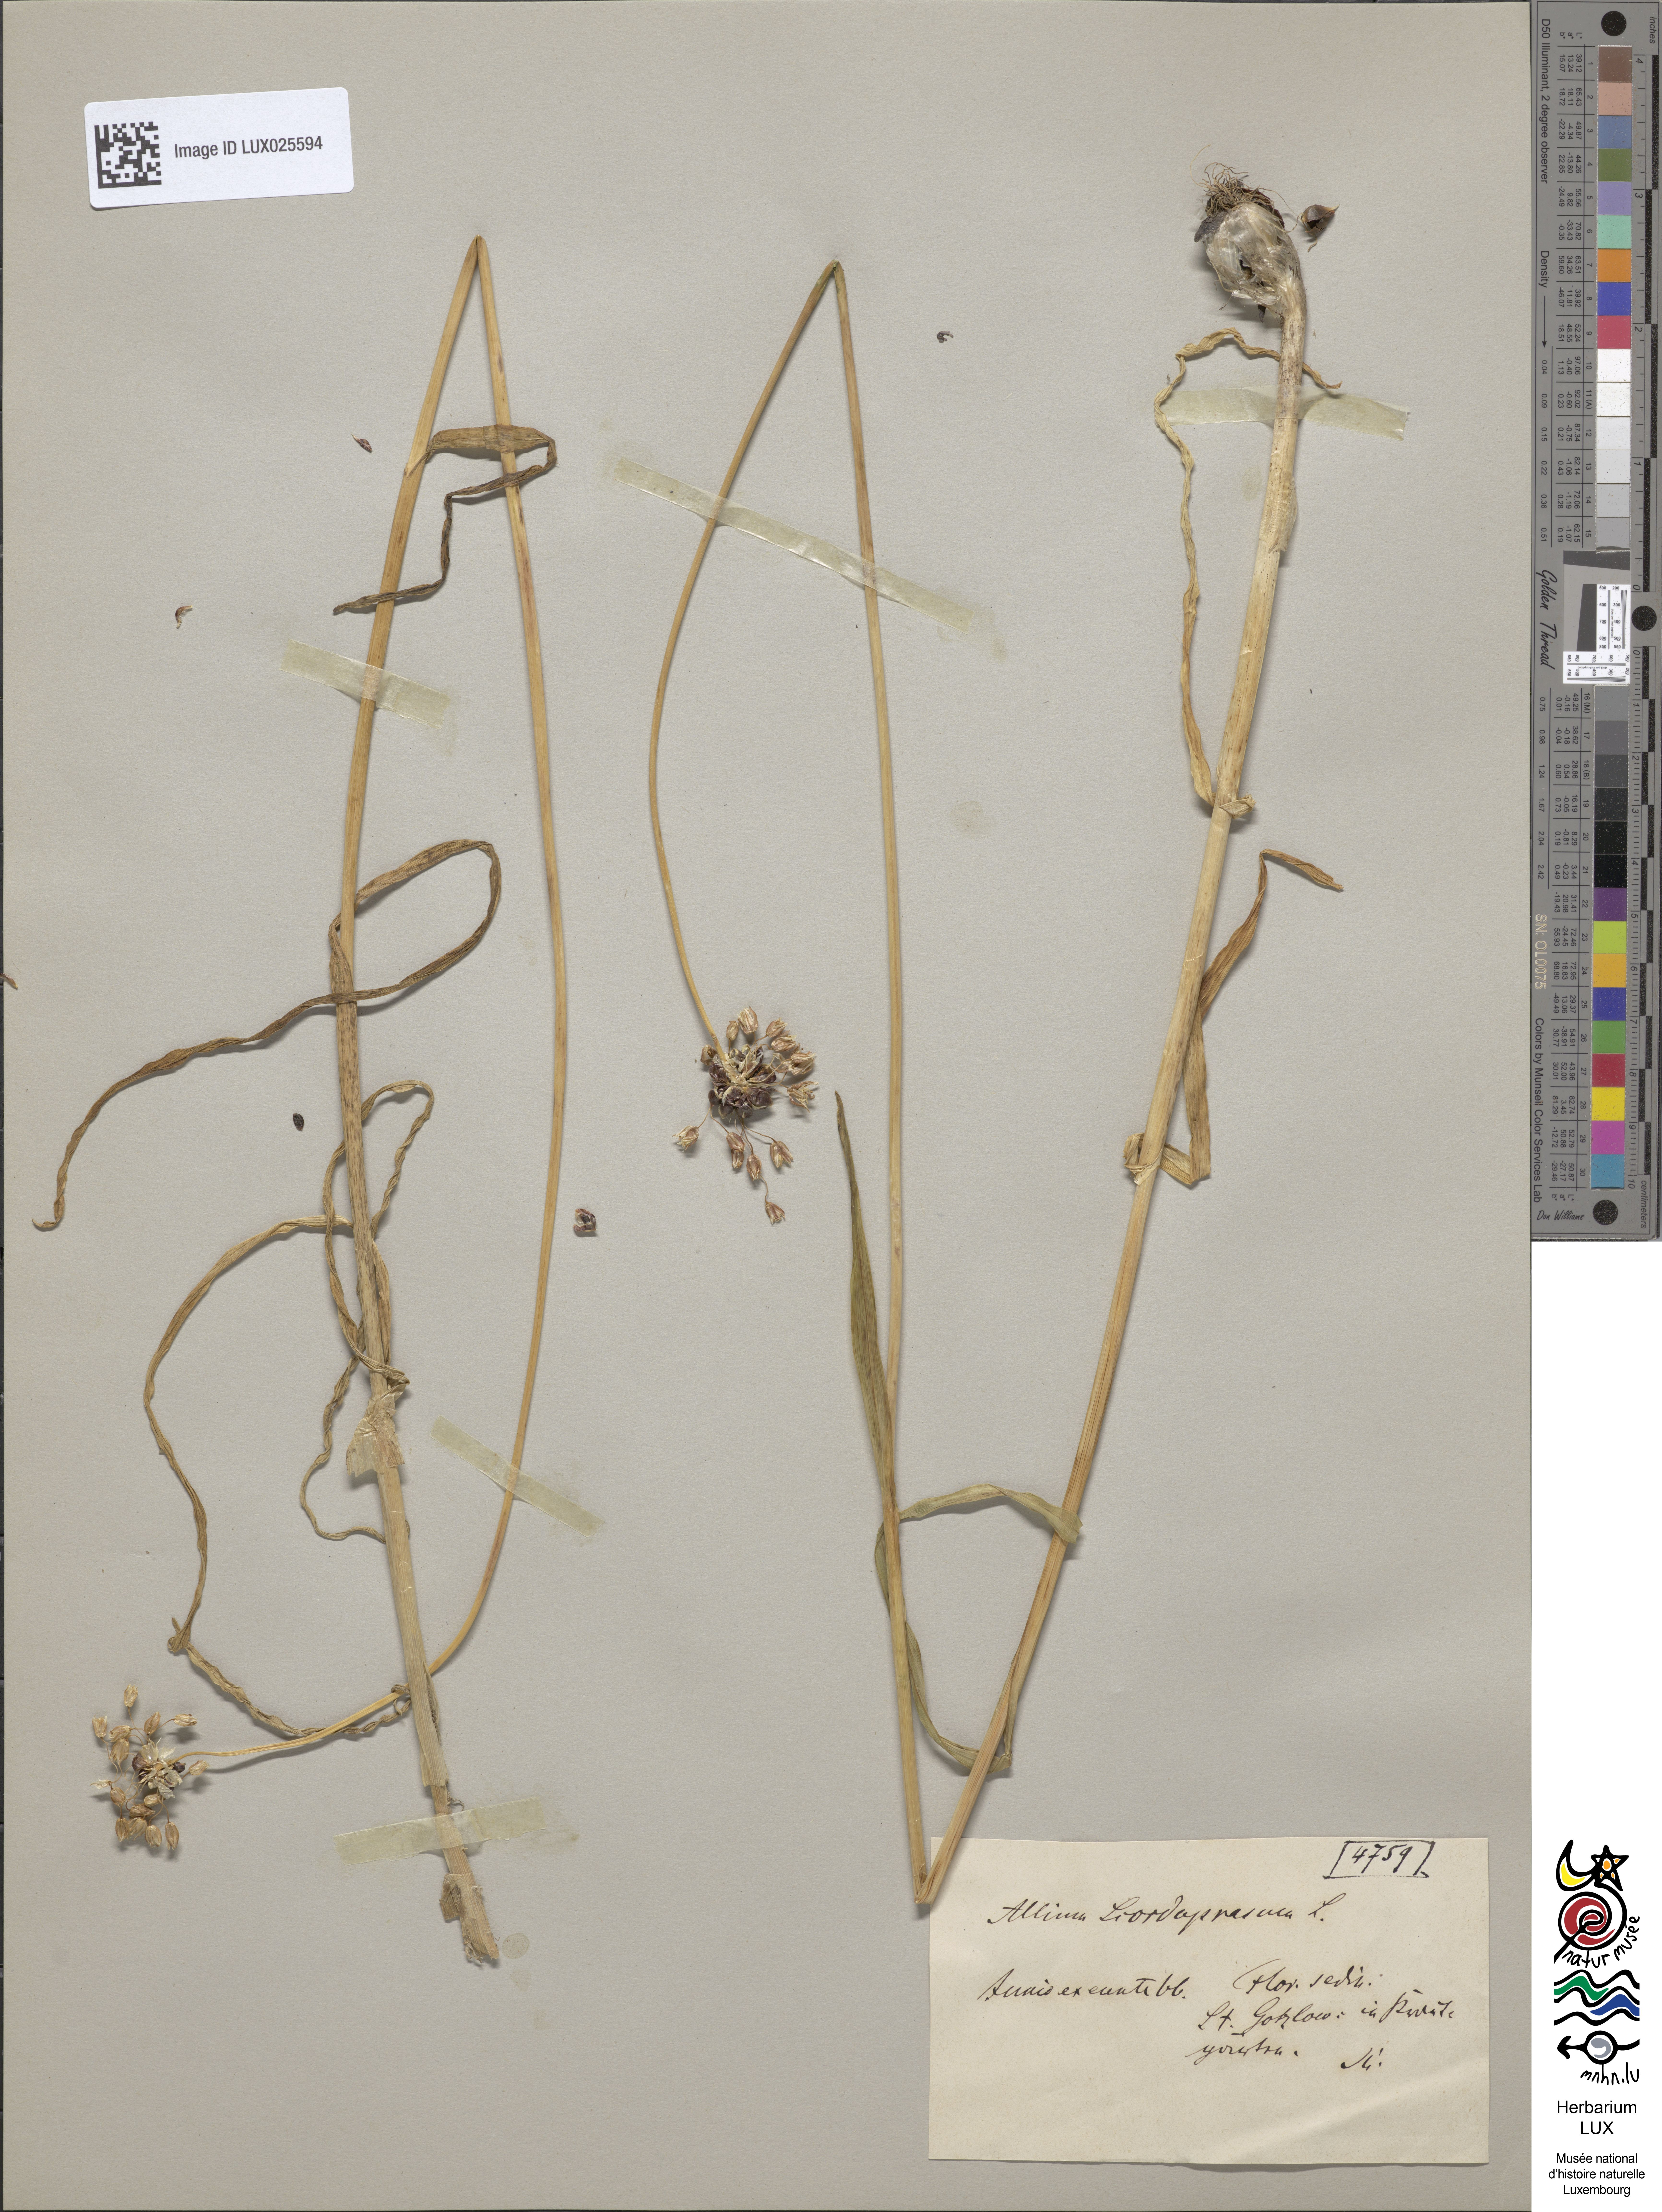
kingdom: Plantae
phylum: Tracheophyta
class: Liliopsida
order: Asparagales
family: Amaryllidaceae
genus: Allium
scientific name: Allium scorodoprasum
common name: Sand leek
